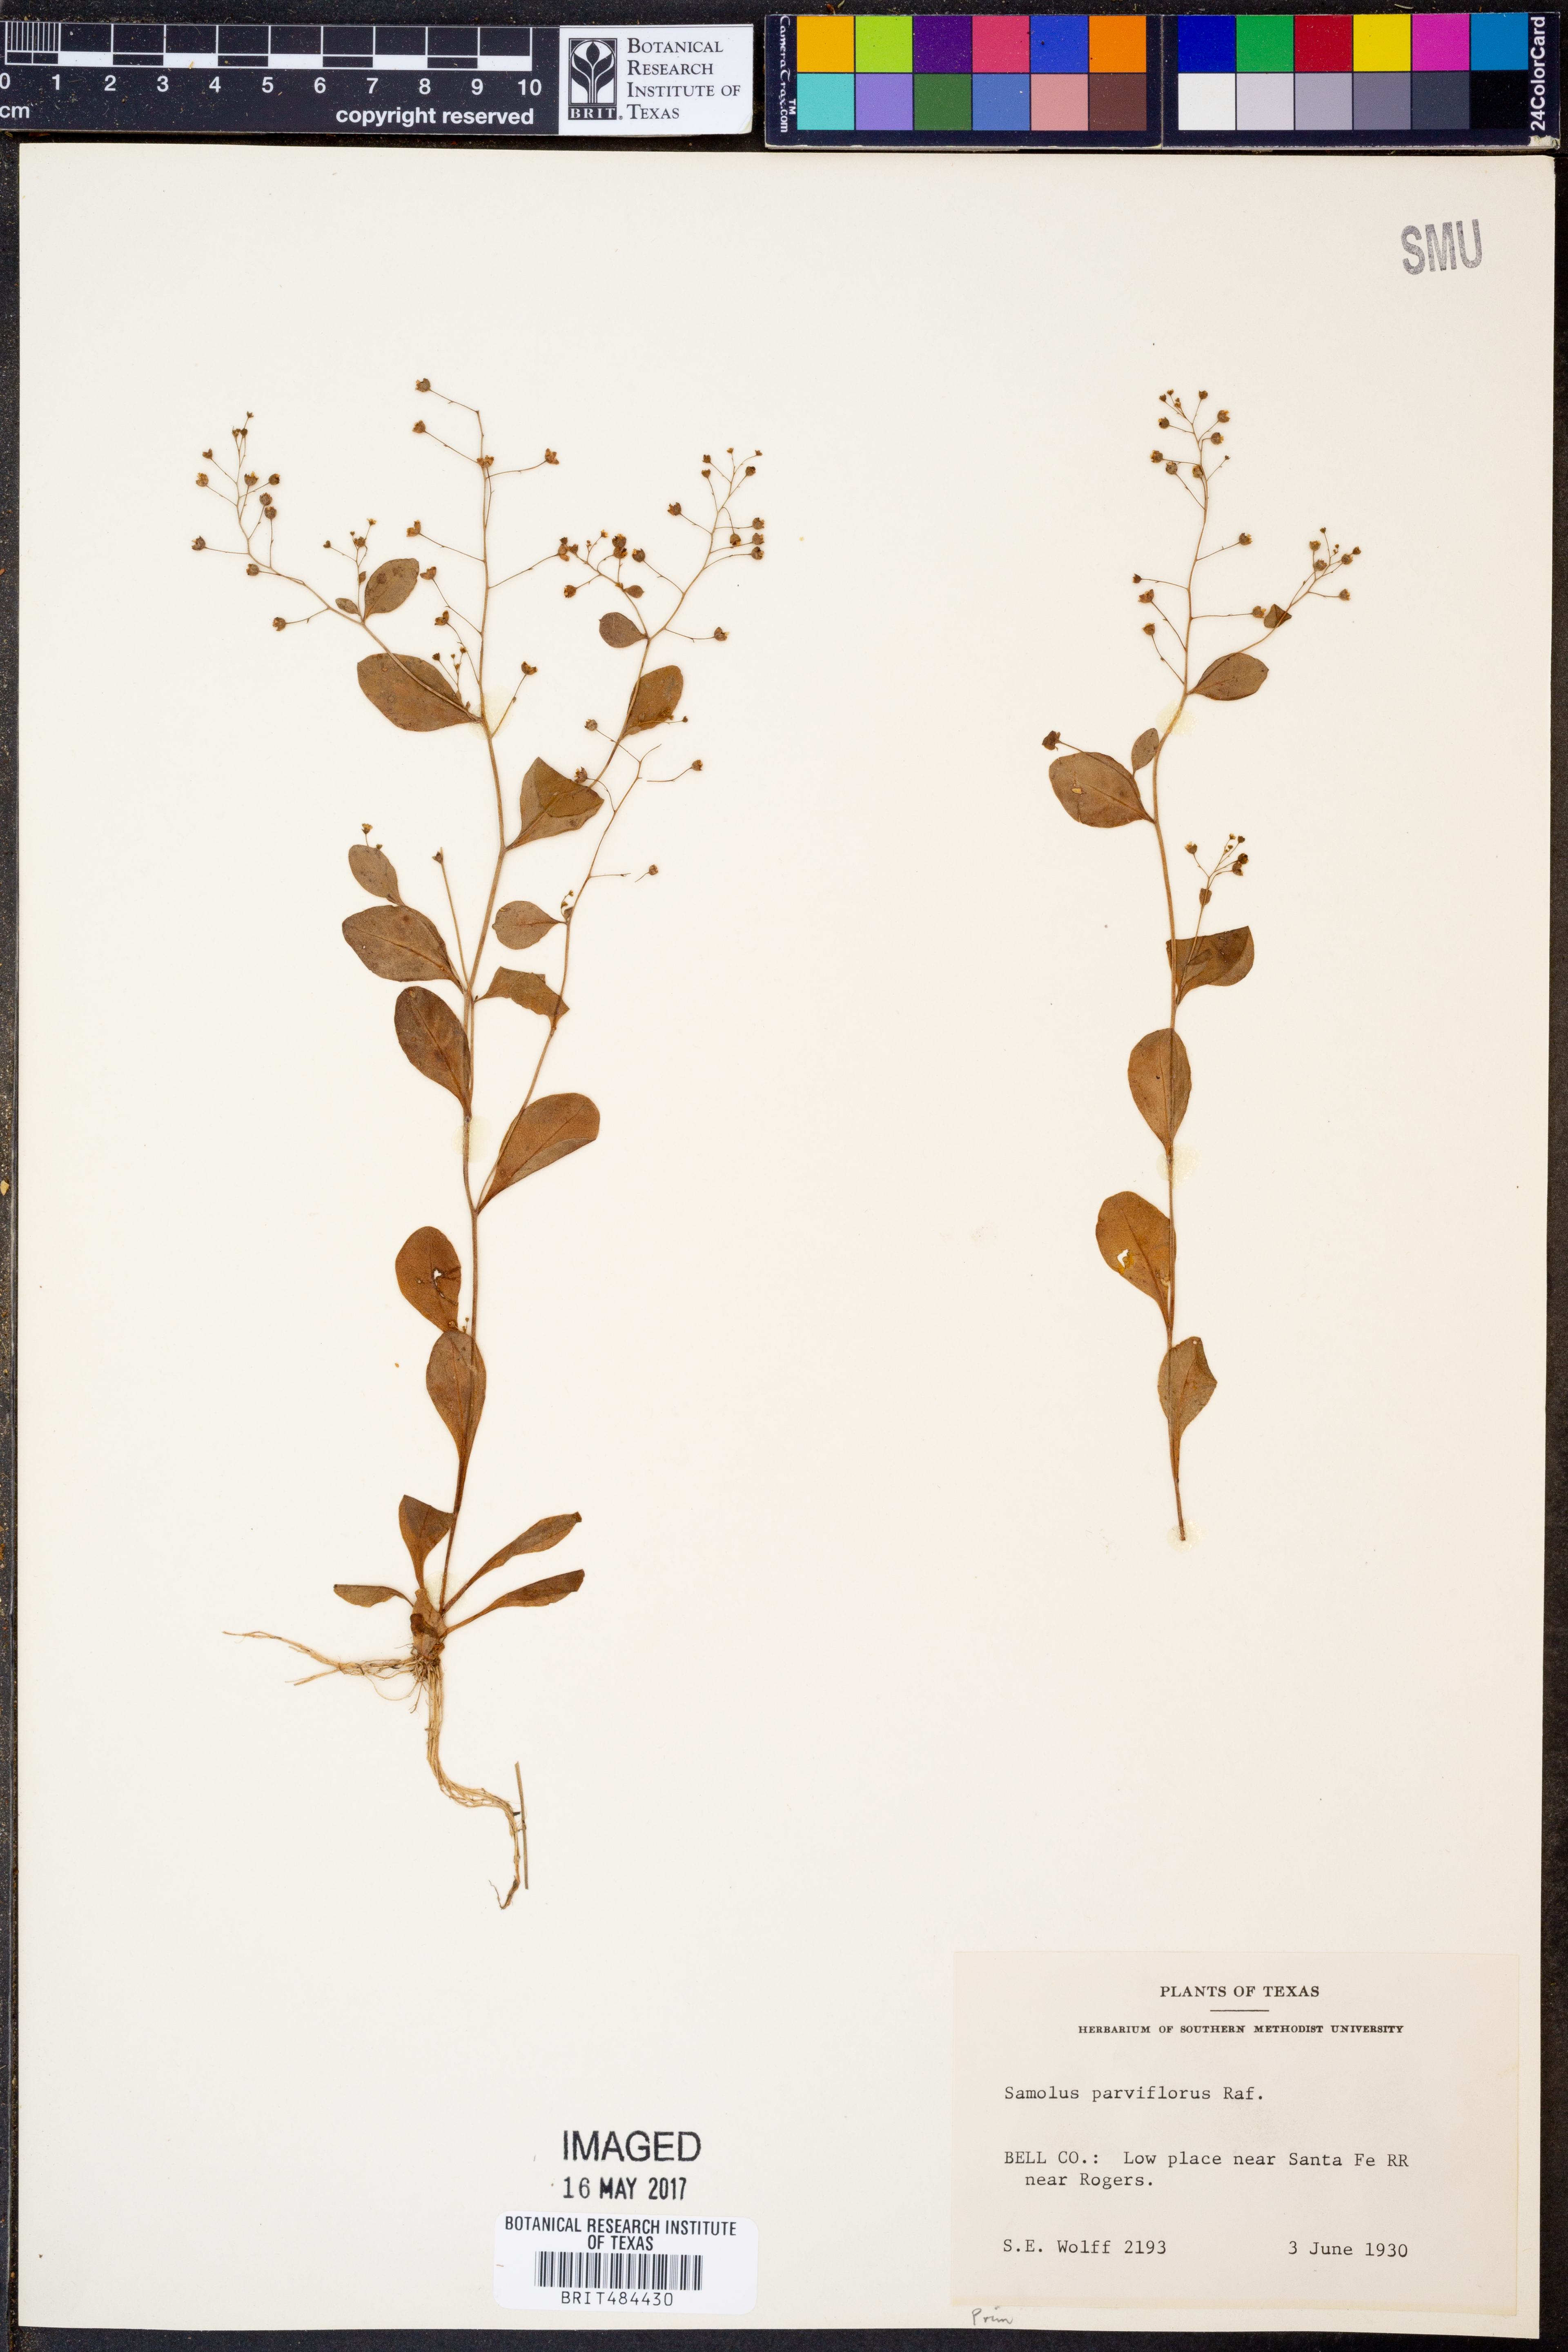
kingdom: Plantae
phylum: Tracheophyta
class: Magnoliopsida
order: Ericales
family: Primulaceae
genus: Samolus
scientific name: Samolus parviflorus
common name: False water pimpernel
